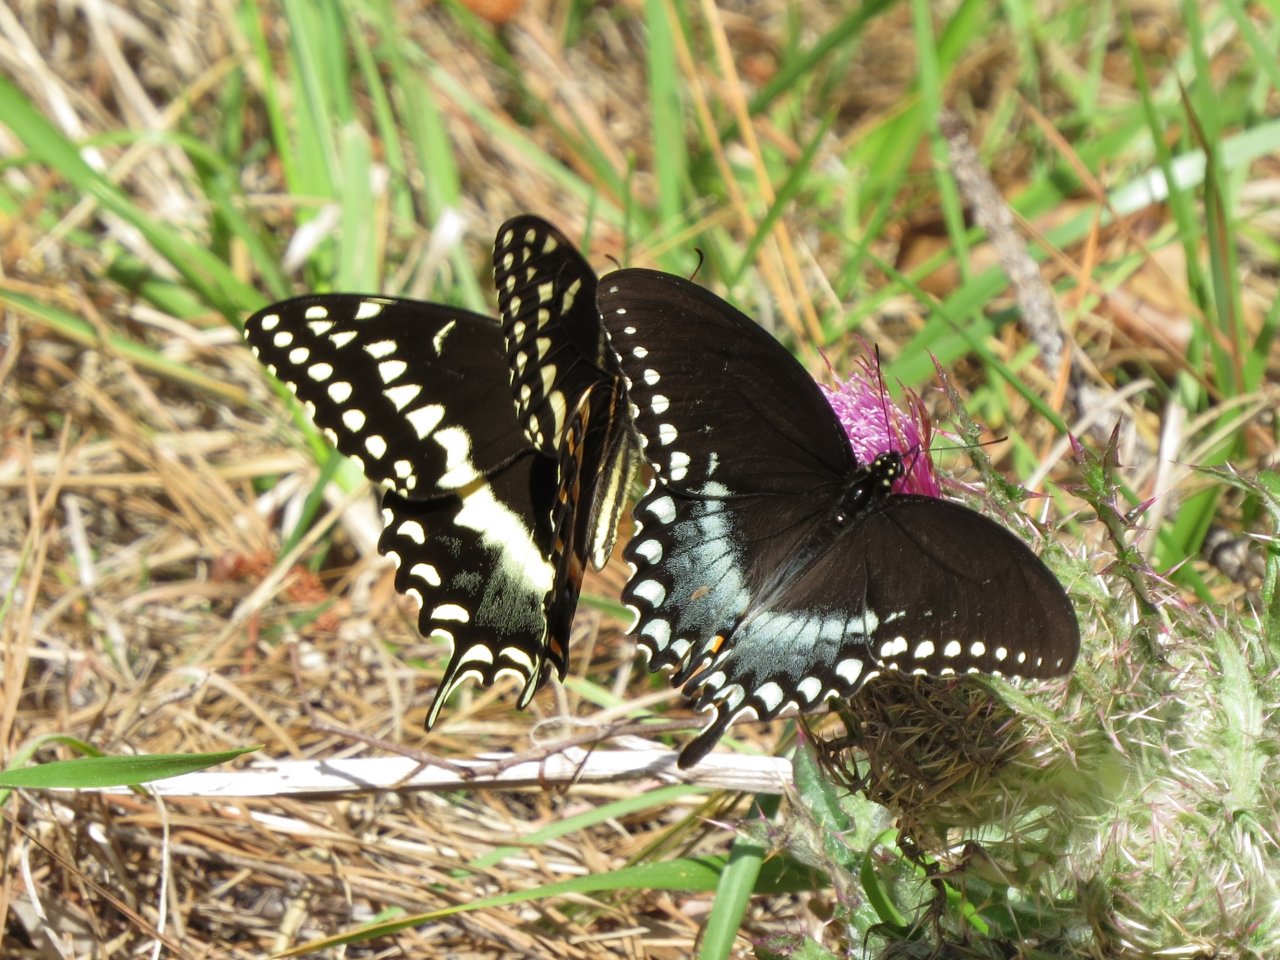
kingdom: Animalia
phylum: Arthropoda
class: Insecta
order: Lepidoptera
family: Papilionidae
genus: Pterourus
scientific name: Pterourus troilus
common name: Spicebush Swallowtail
